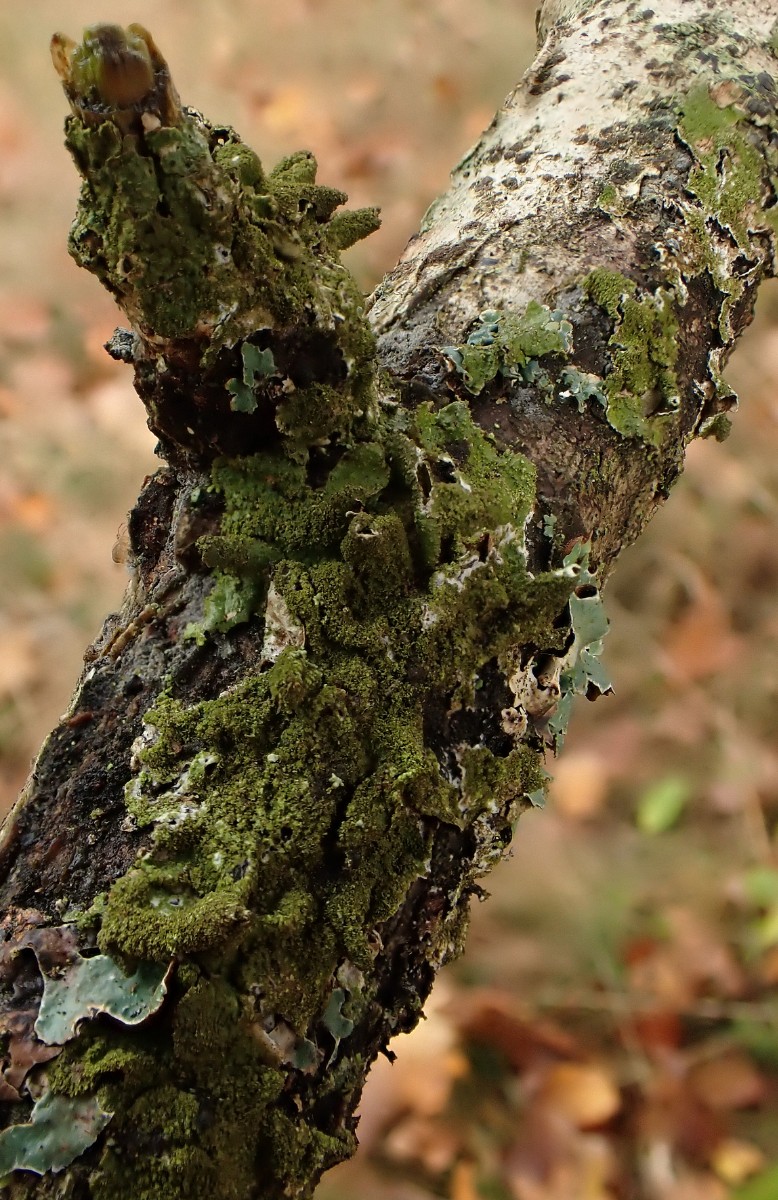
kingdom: Fungi
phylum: Ascomycota
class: Lecanoromycetes
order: Lecanorales
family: Parmeliaceae
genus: Melanelixia
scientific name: Melanelixia glabratula
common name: glinsende skållav
